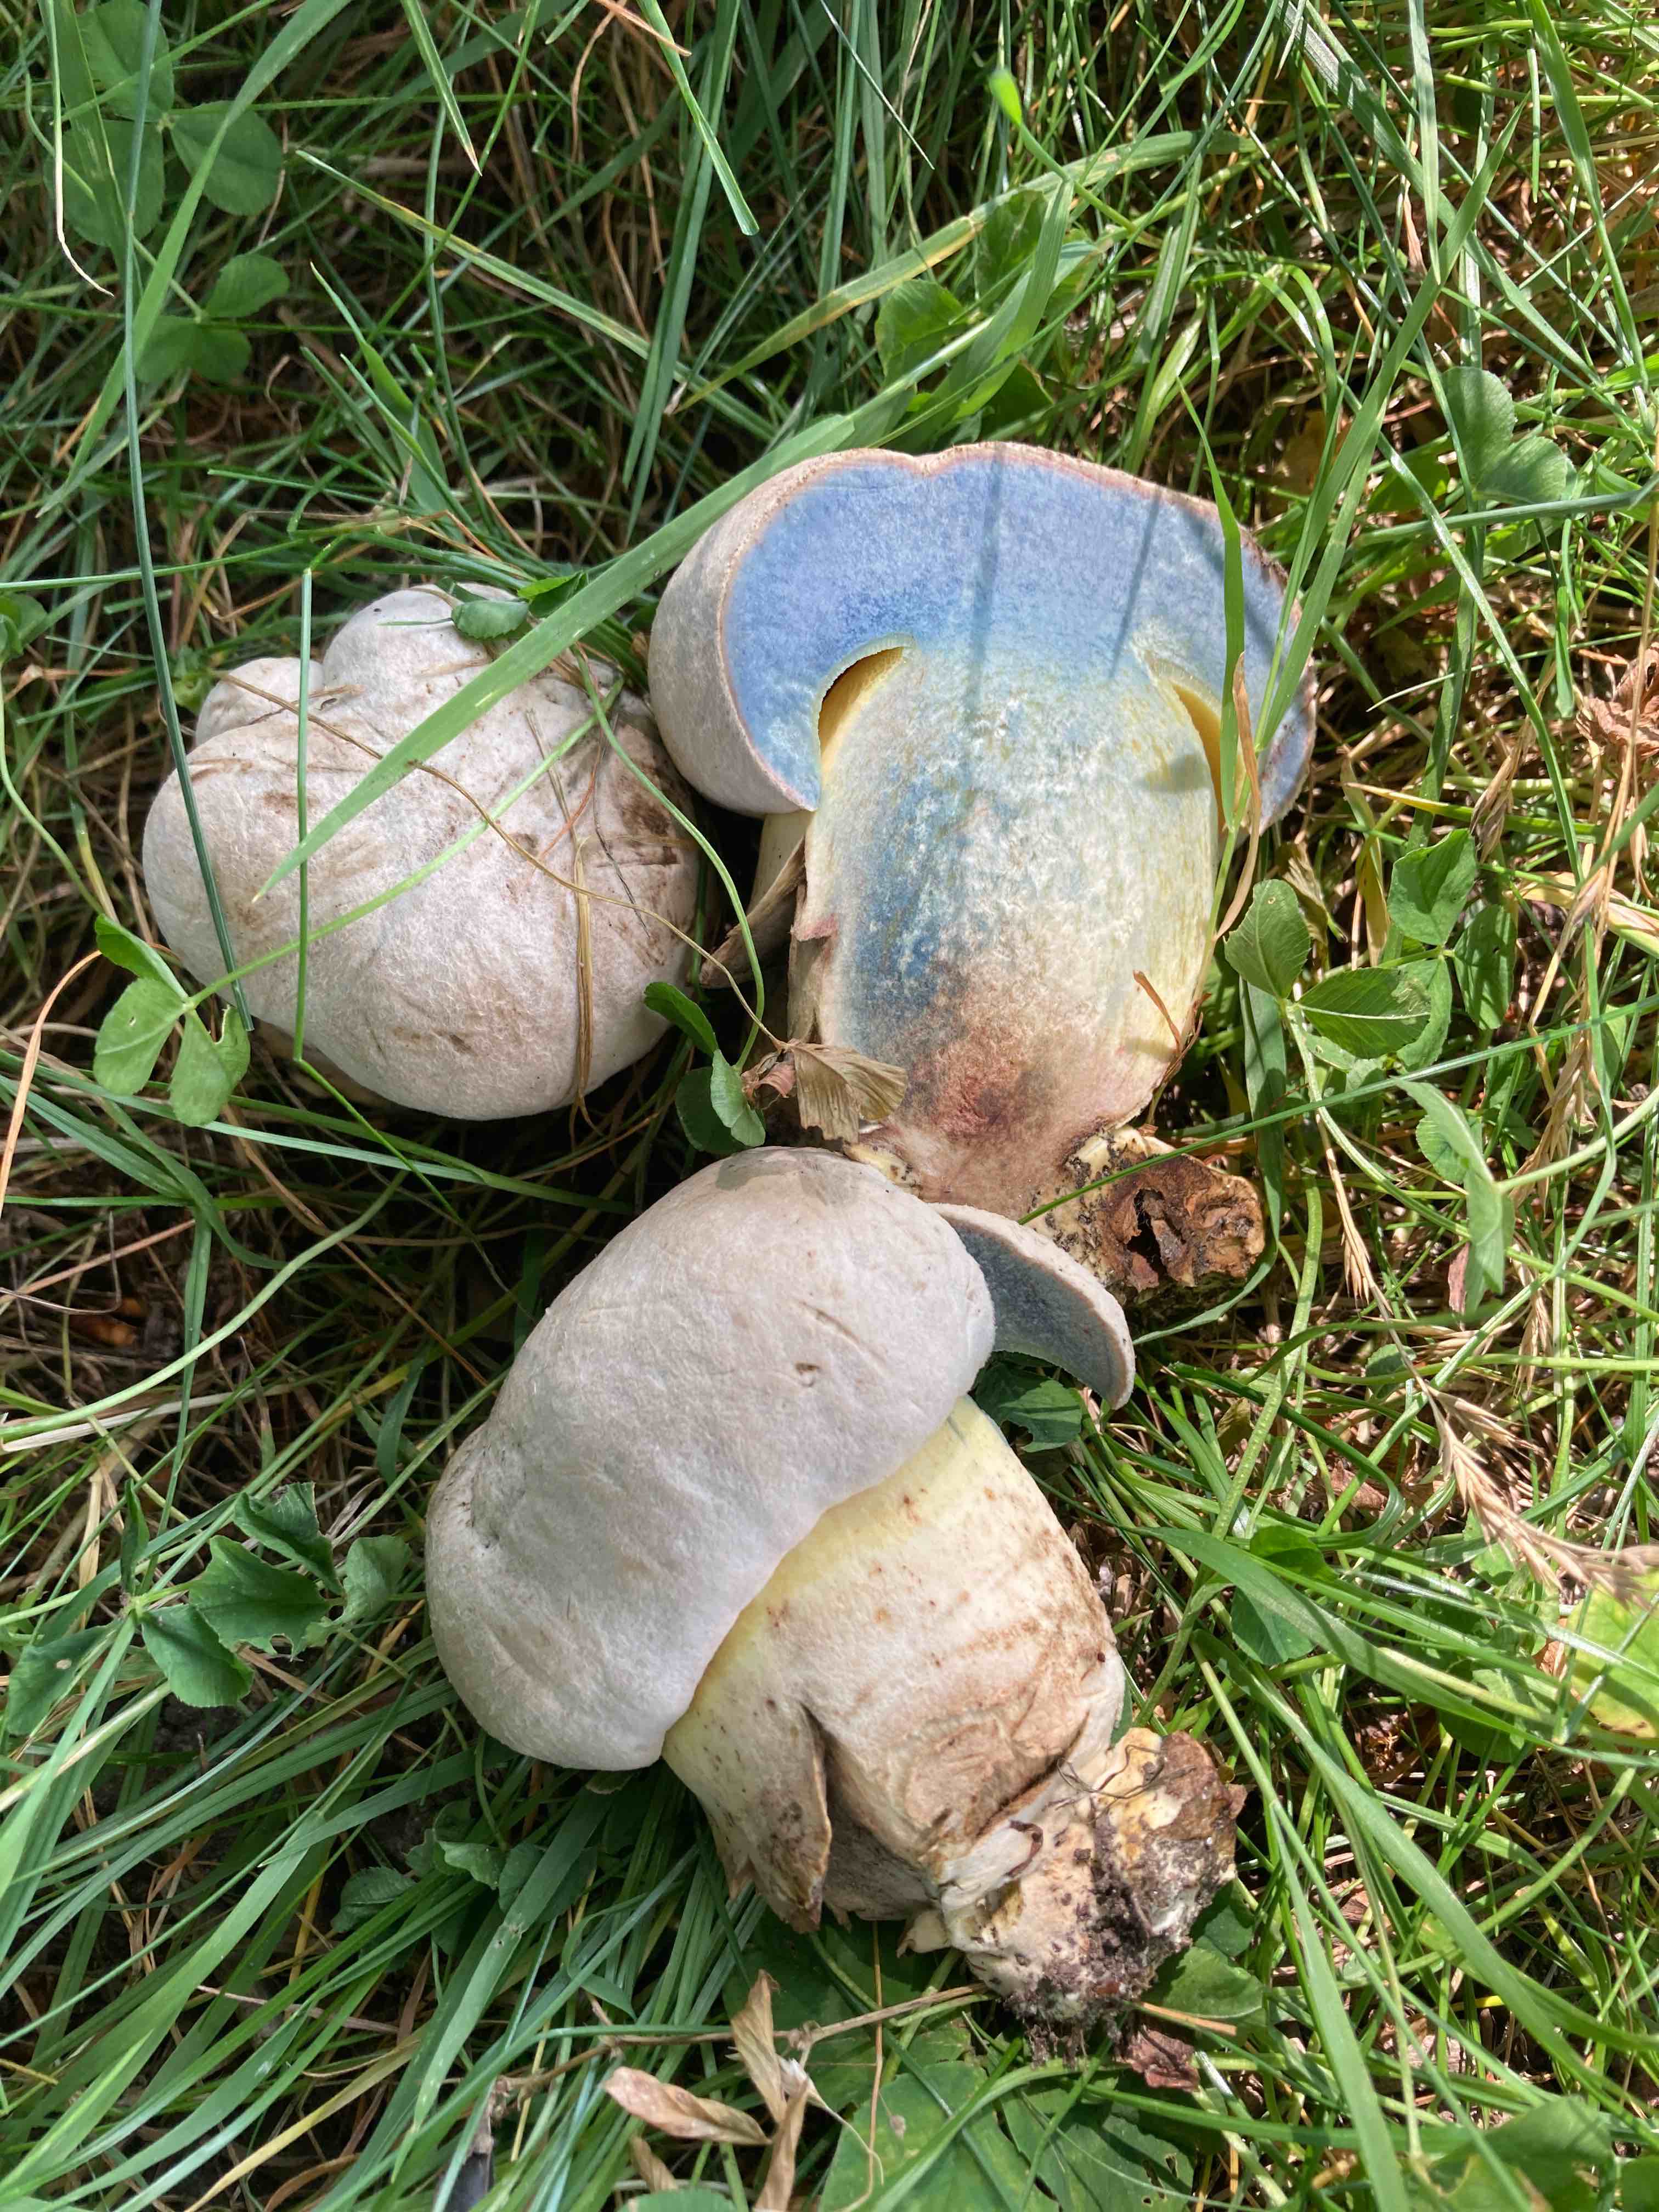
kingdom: Fungi
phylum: Basidiomycota
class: Agaricomycetes
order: Boletales
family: Boletaceae
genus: Caloboletus
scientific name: Caloboletus radicans
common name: rod-rørhat
